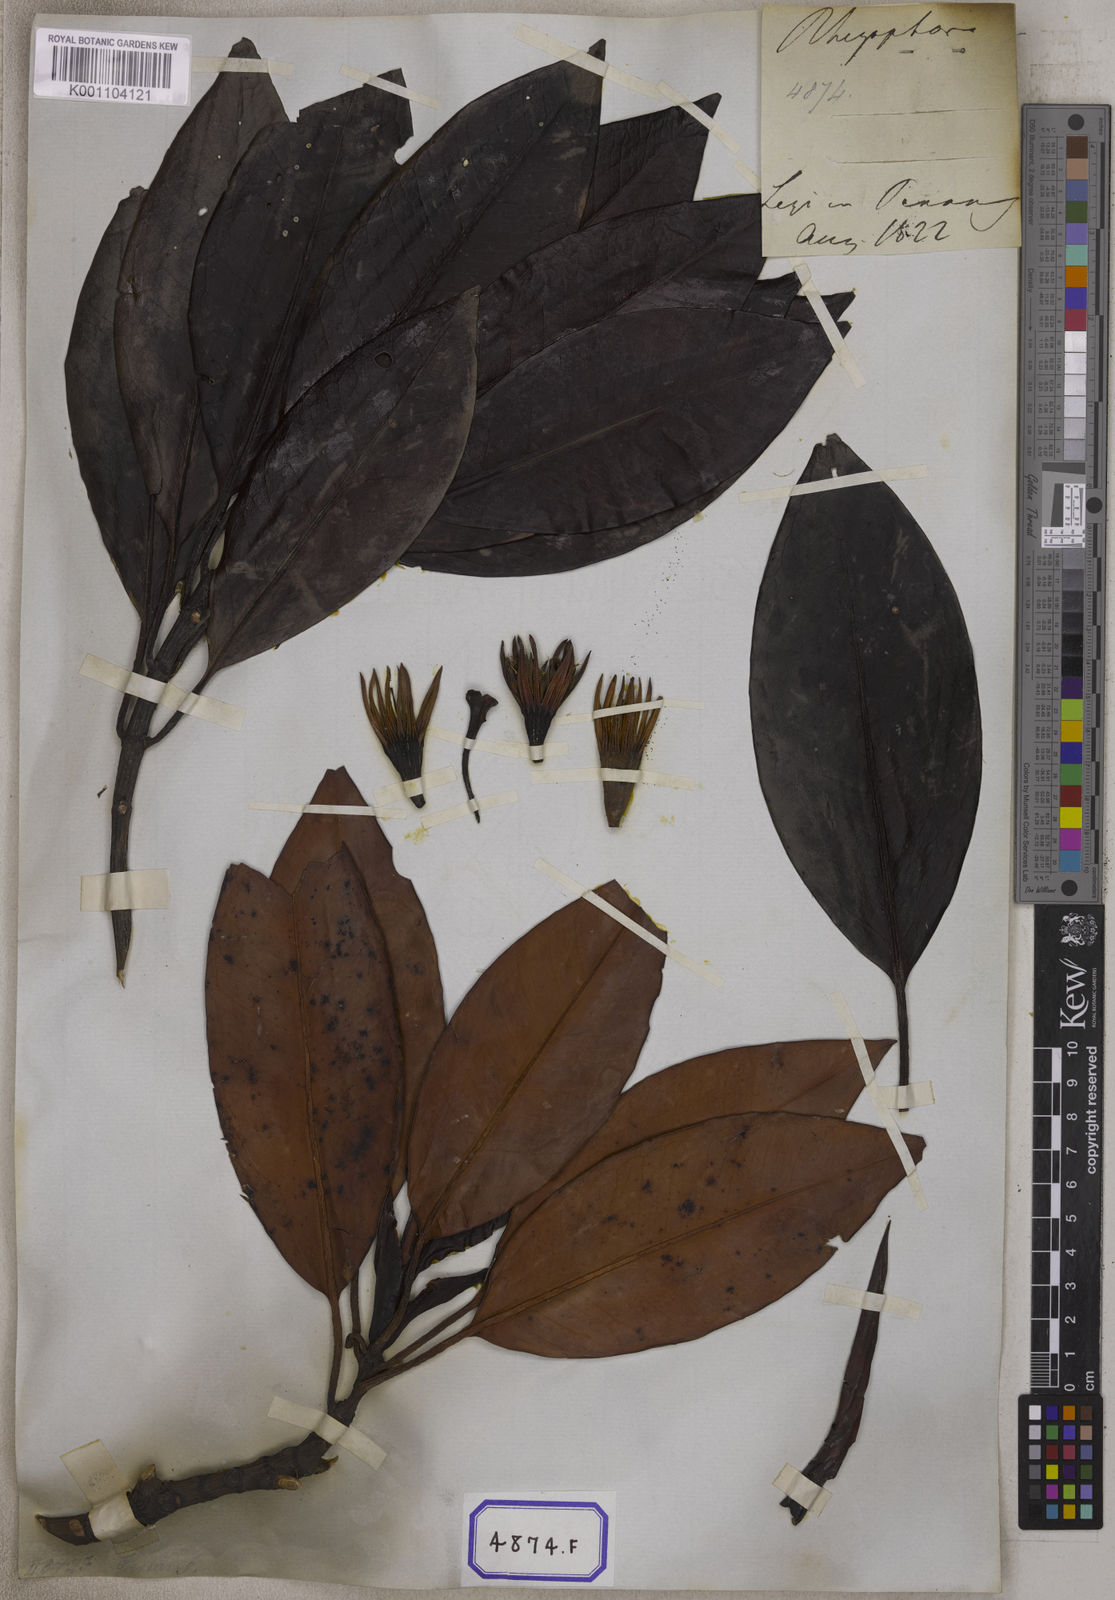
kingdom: Plantae
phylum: Tracheophyta
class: Magnoliopsida
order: Malpighiales
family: Rhizophoraceae
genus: Bruguiera
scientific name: Bruguiera gymnorhiza
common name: Oriental mangrove
